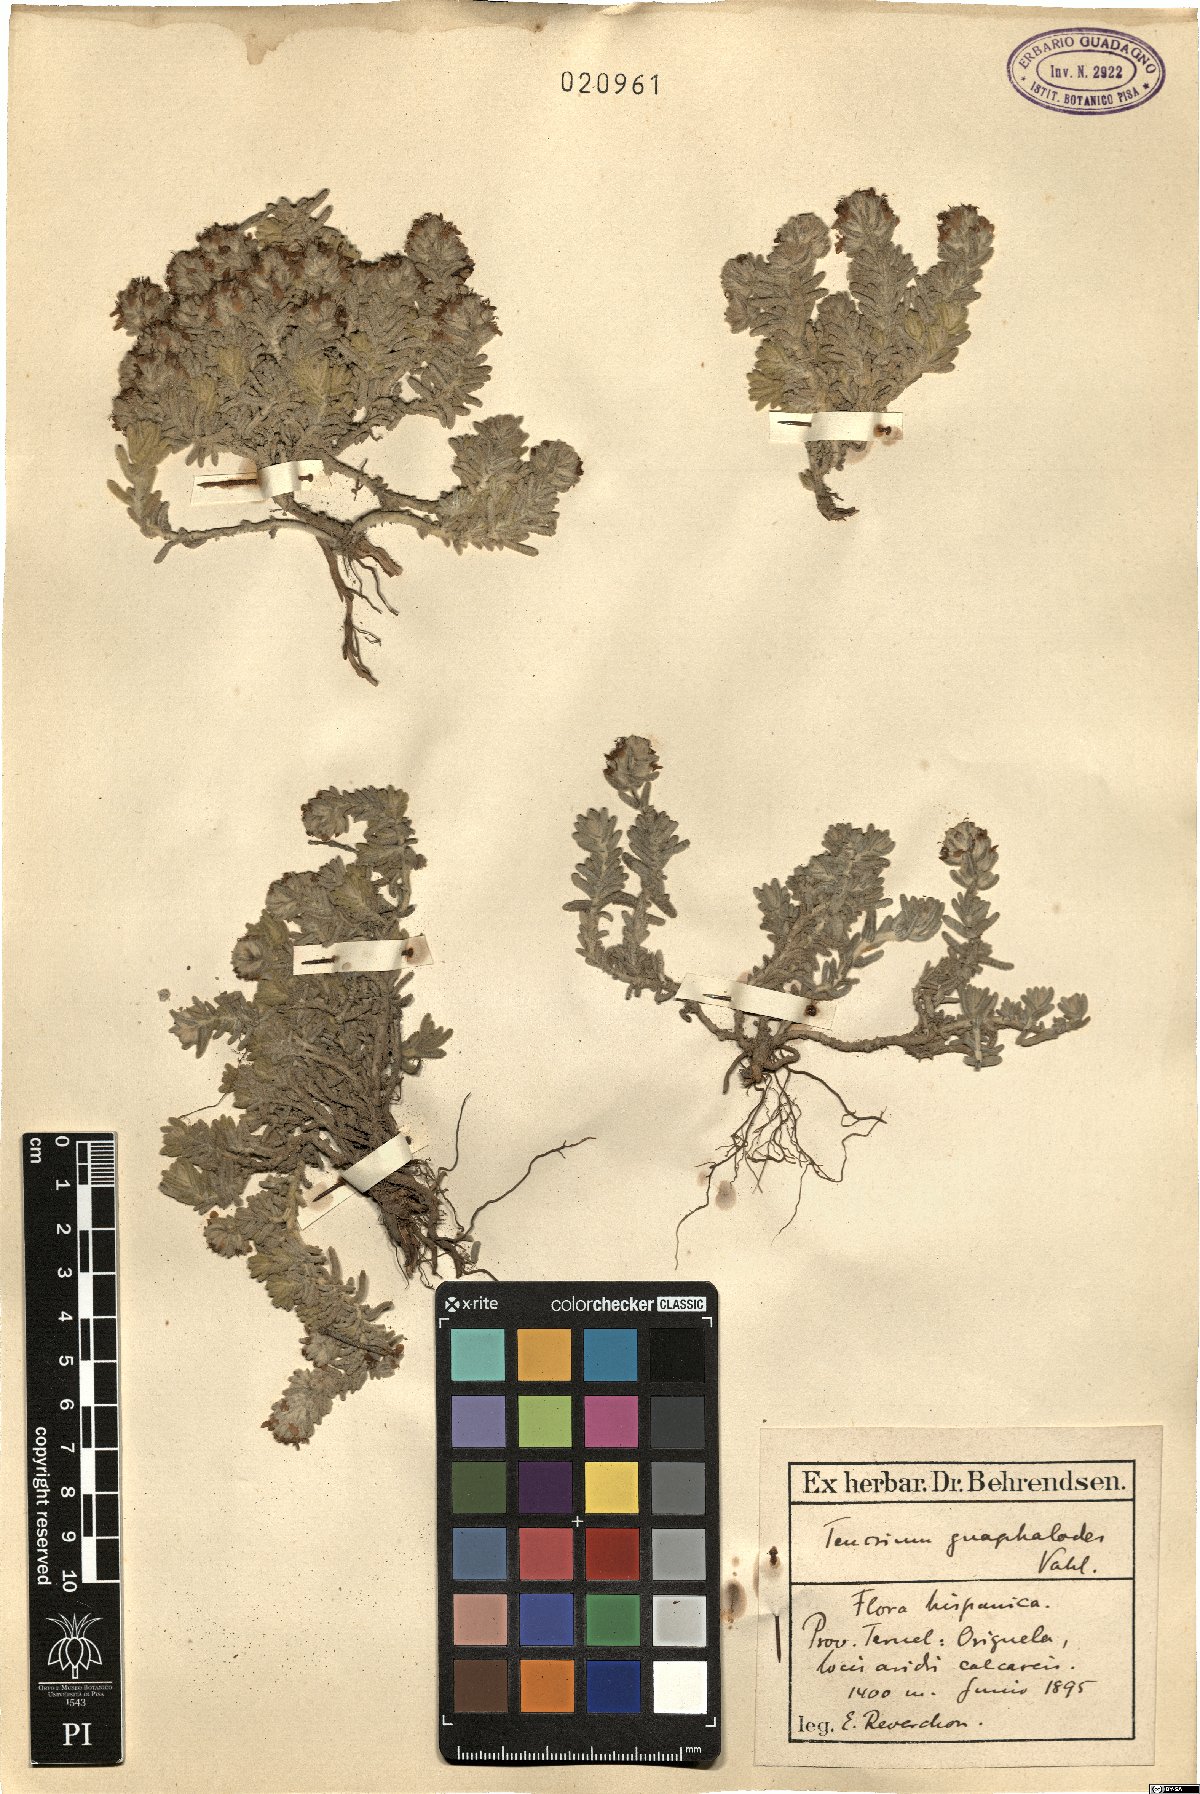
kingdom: Plantae
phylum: Tracheophyta
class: Magnoliopsida
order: Lamiales
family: Lamiaceae
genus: Teucrium
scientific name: Teucrium gnaphalodes
